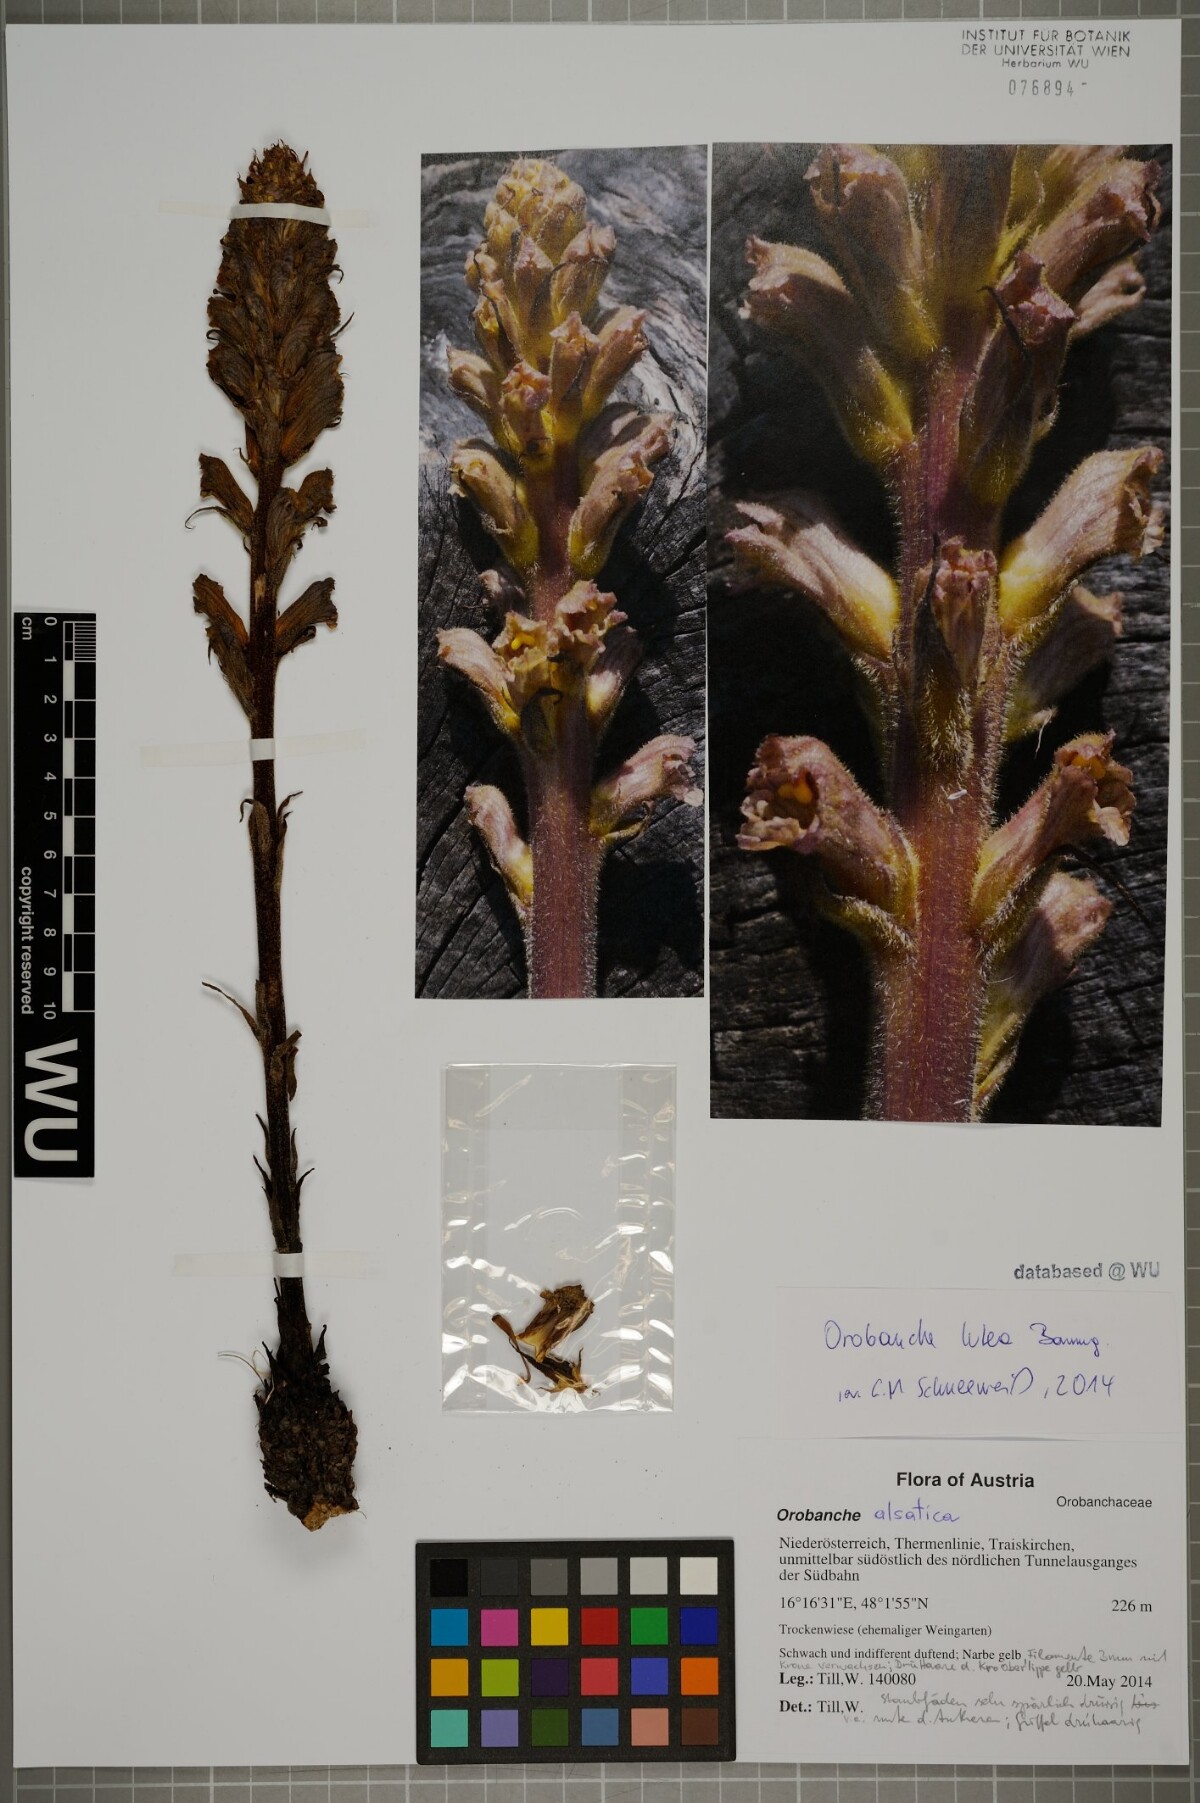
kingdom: Plantae
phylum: Tracheophyta
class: Magnoliopsida
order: Lamiales
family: Orobanchaceae
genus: Orobanche
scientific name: Orobanche lutea
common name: Yellow broomrape
